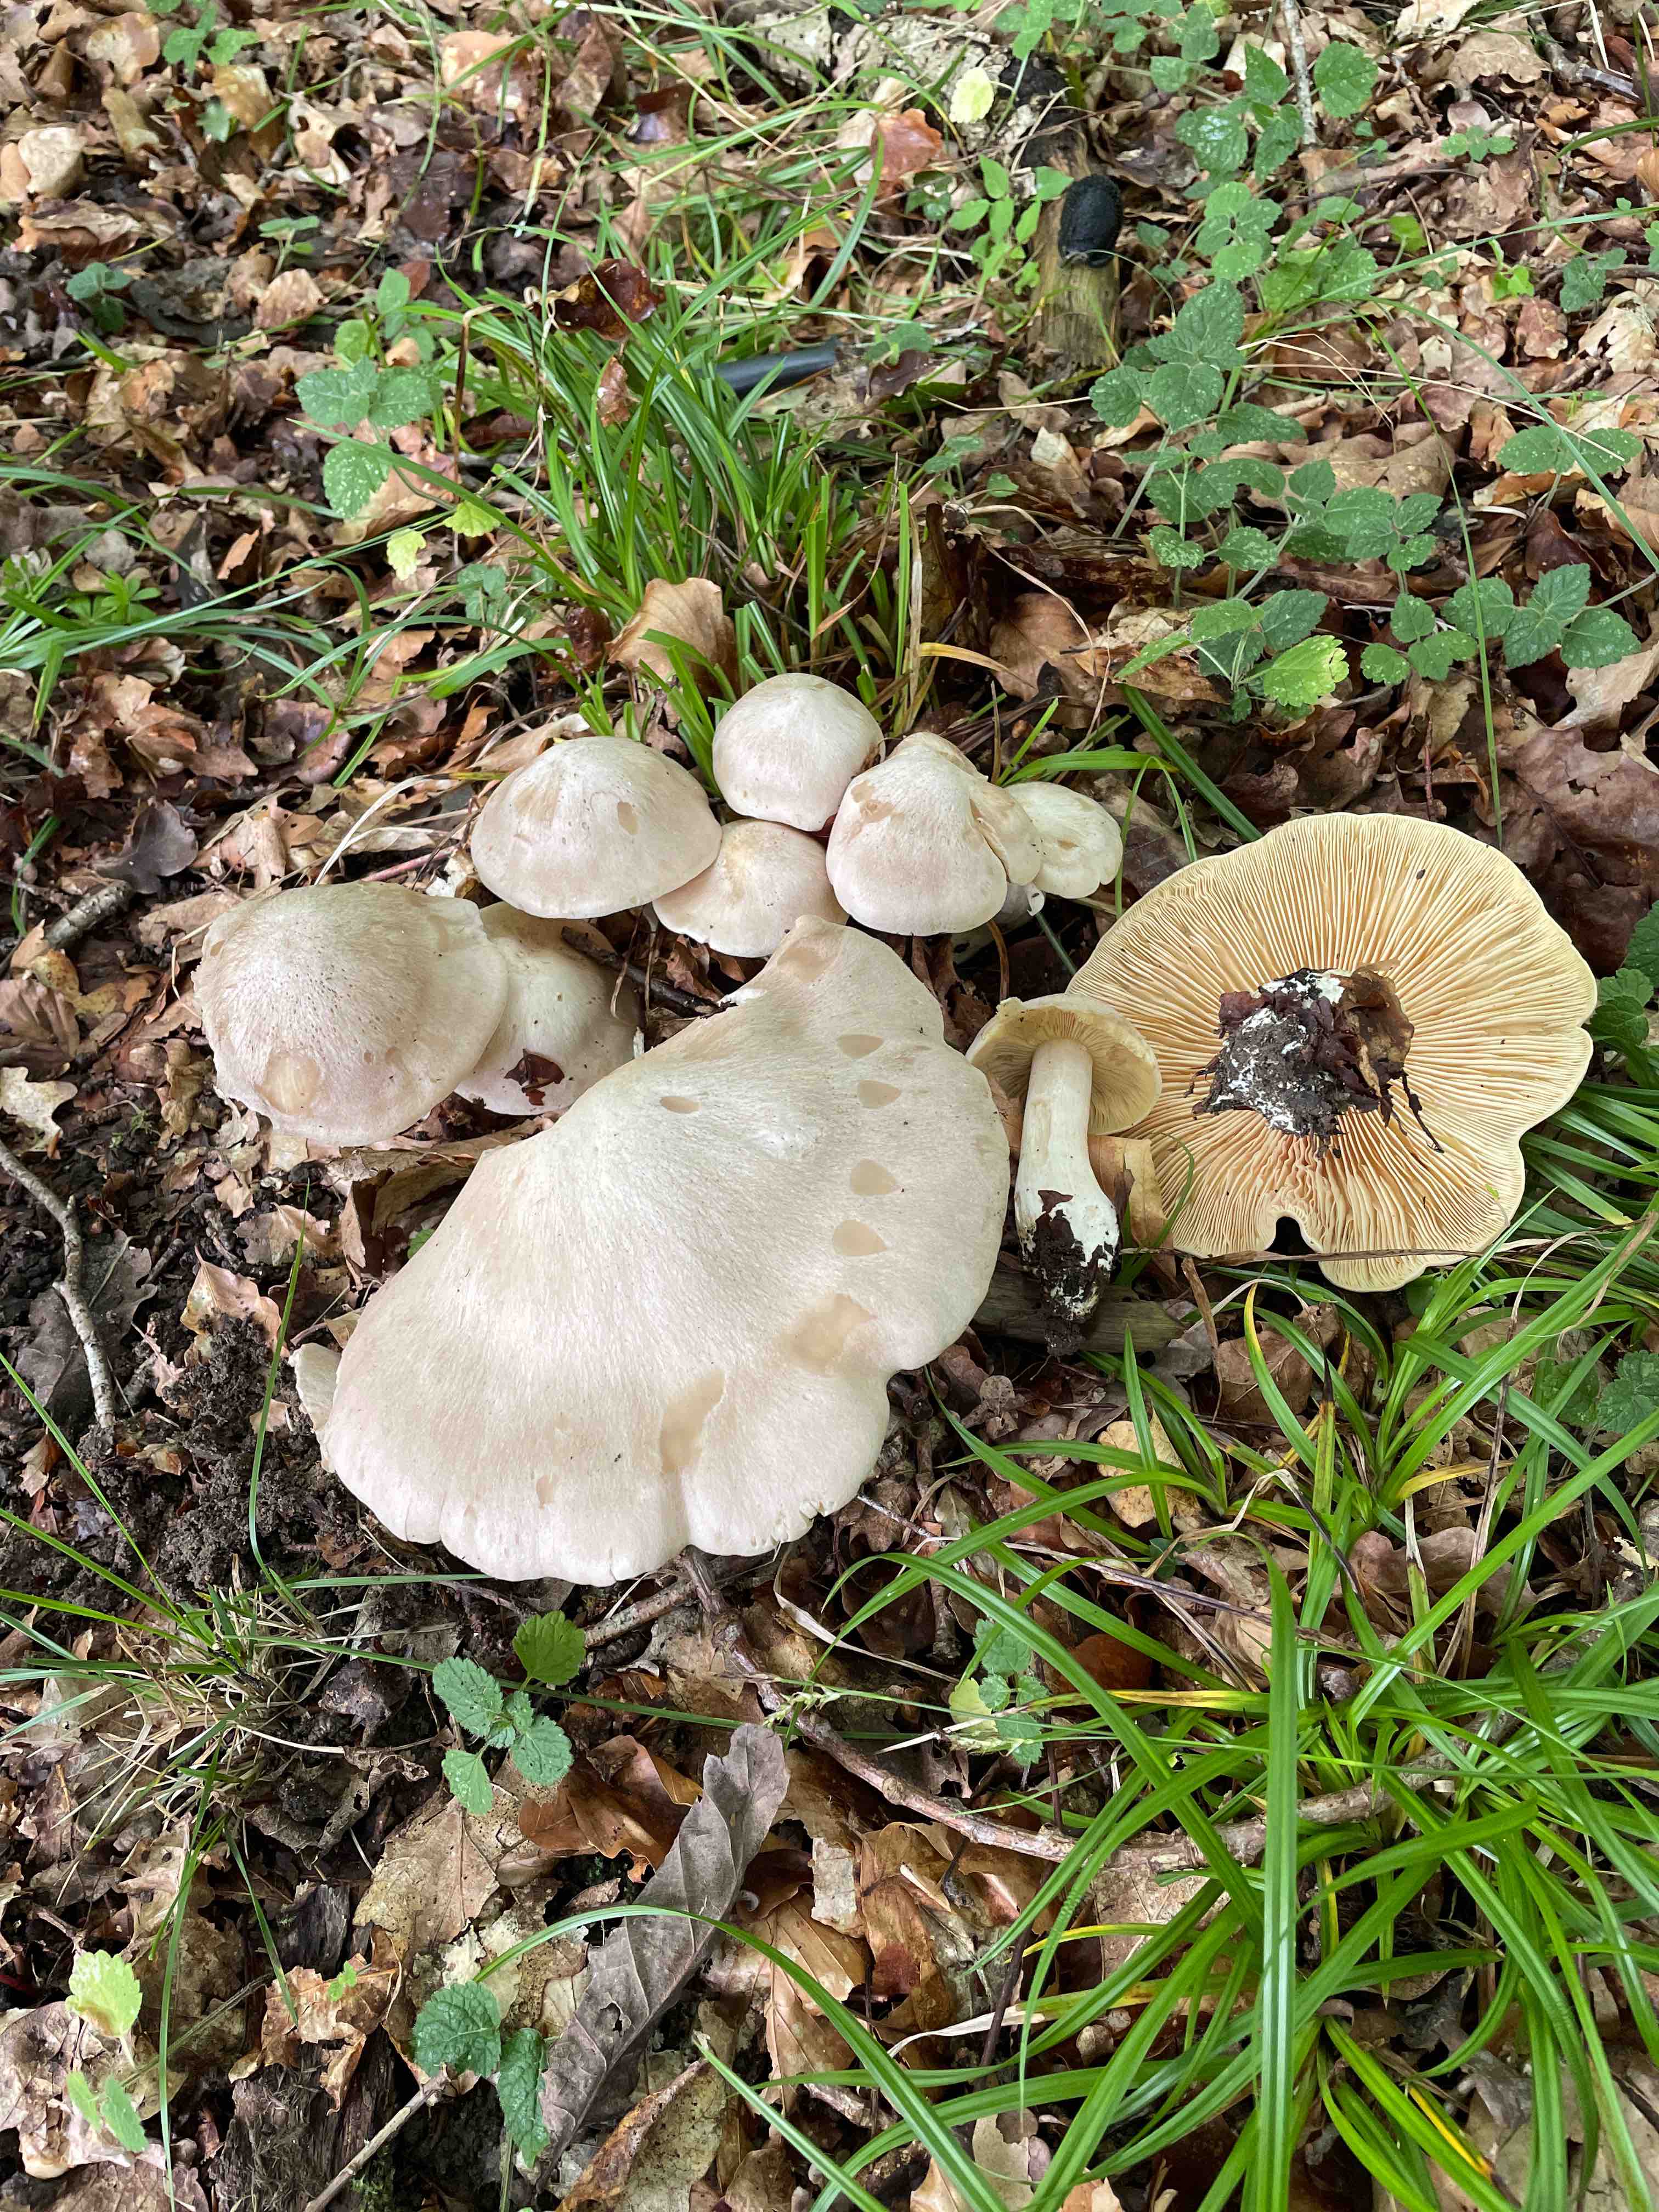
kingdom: Fungi
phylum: Basidiomycota
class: Agaricomycetes
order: Agaricales
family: Entolomataceae
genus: Entoloma
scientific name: Entoloma sinuatum
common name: giftig rødblad
